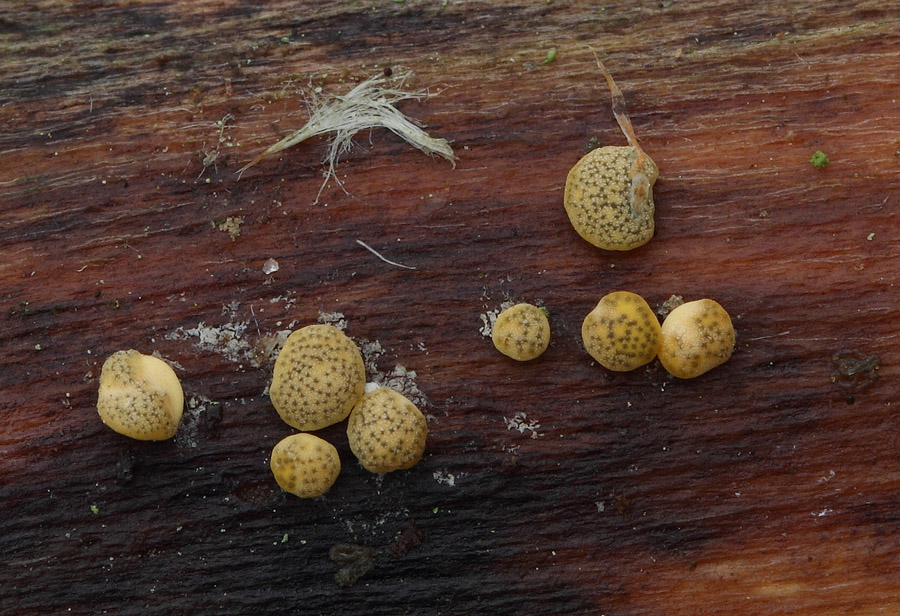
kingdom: Fungi
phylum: Ascomycota
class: Sordariomycetes
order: Hypocreales
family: Hypocreaceae
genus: Trichoderma
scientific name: Trichoderma aureoviride
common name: æggegul kødkerne
